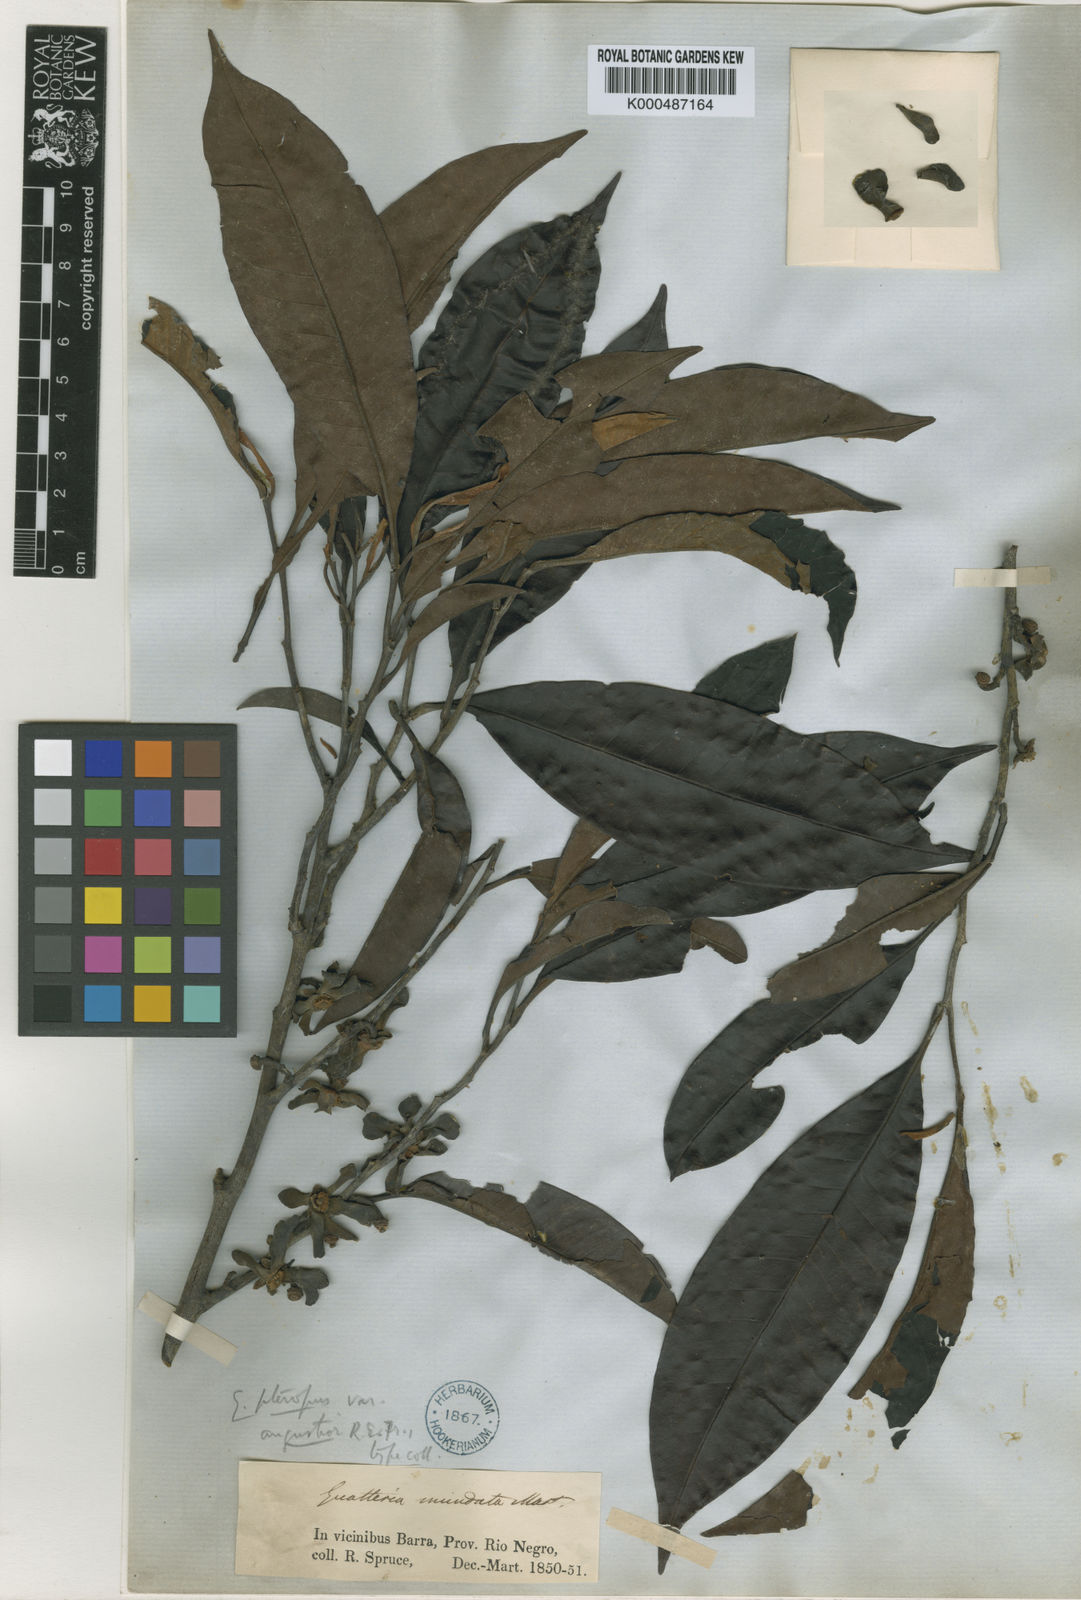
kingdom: Plantae
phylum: Tracheophyta
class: Magnoliopsida
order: Magnoliales
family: Annonaceae
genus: Guatteria
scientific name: Guatteria punctata
